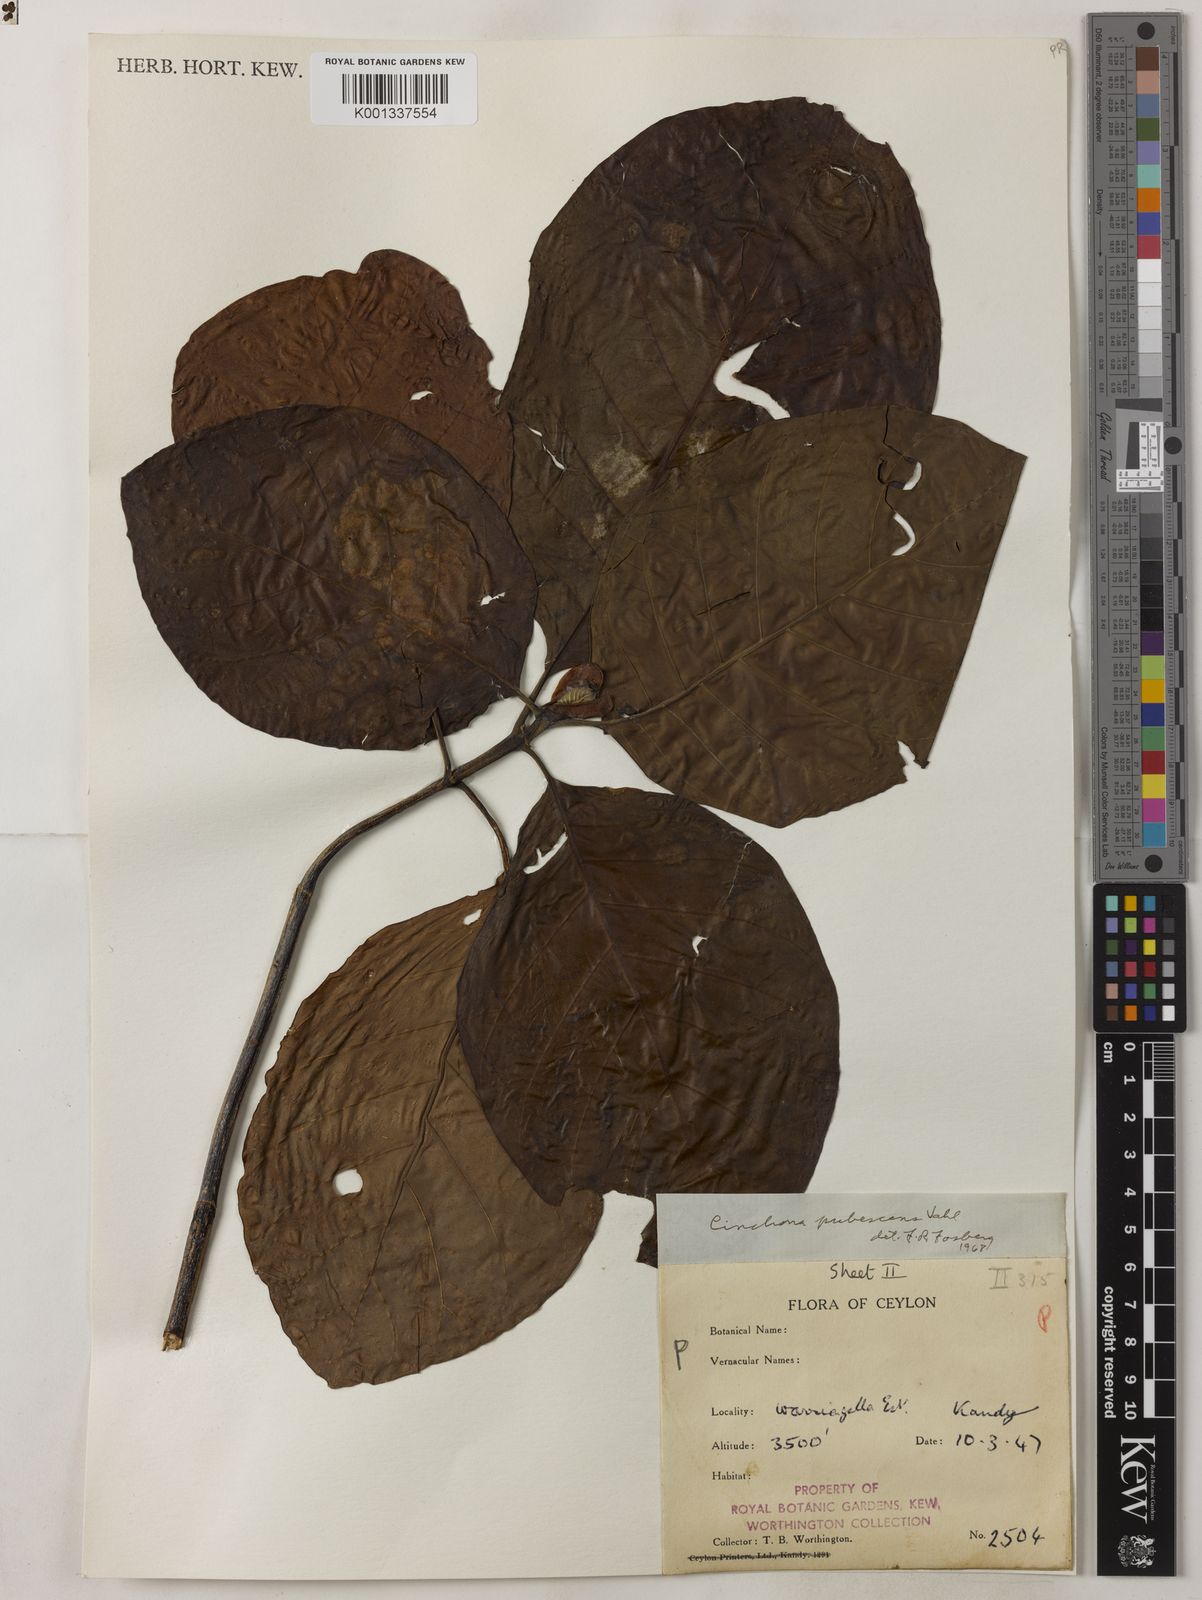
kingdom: Plantae
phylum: Tracheophyta
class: Magnoliopsida
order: Gentianales
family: Rubiaceae
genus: Cinchona
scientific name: Cinchona pubescens
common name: Quinine
